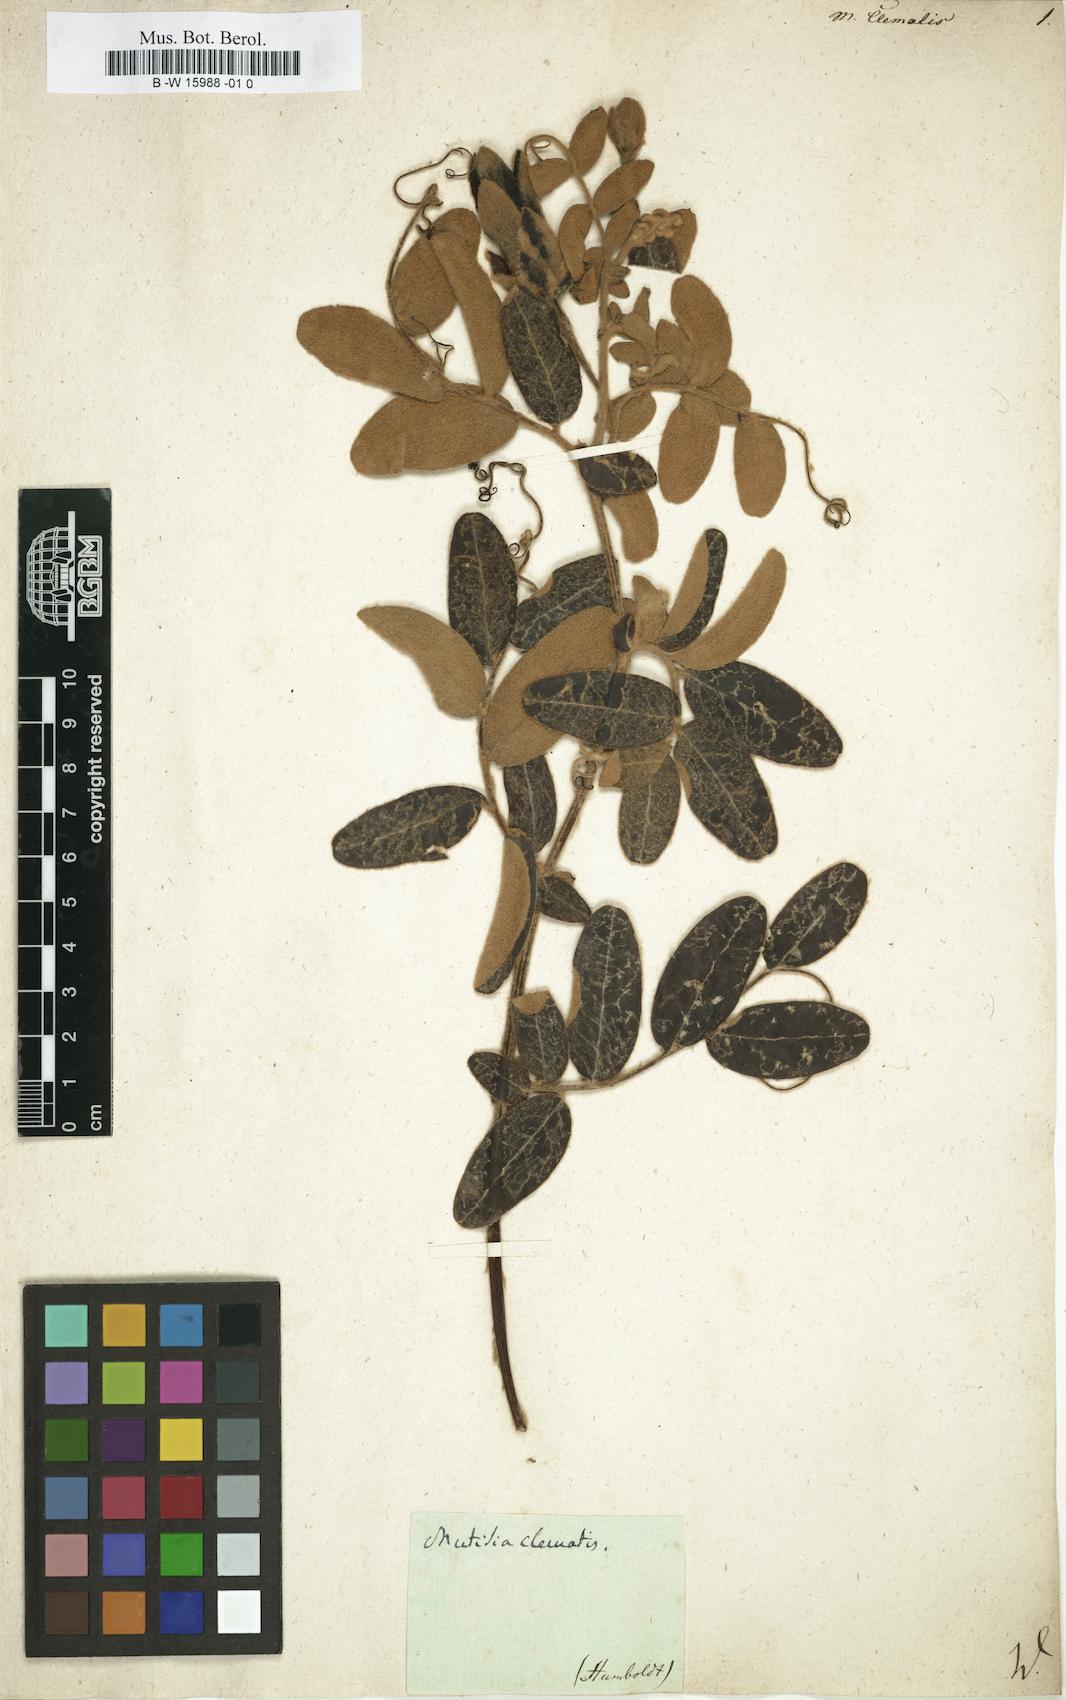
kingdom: Plantae
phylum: Tracheophyta
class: Magnoliopsida
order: Asterales
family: Asteraceae
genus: Mutisia
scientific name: Mutisia clematis
